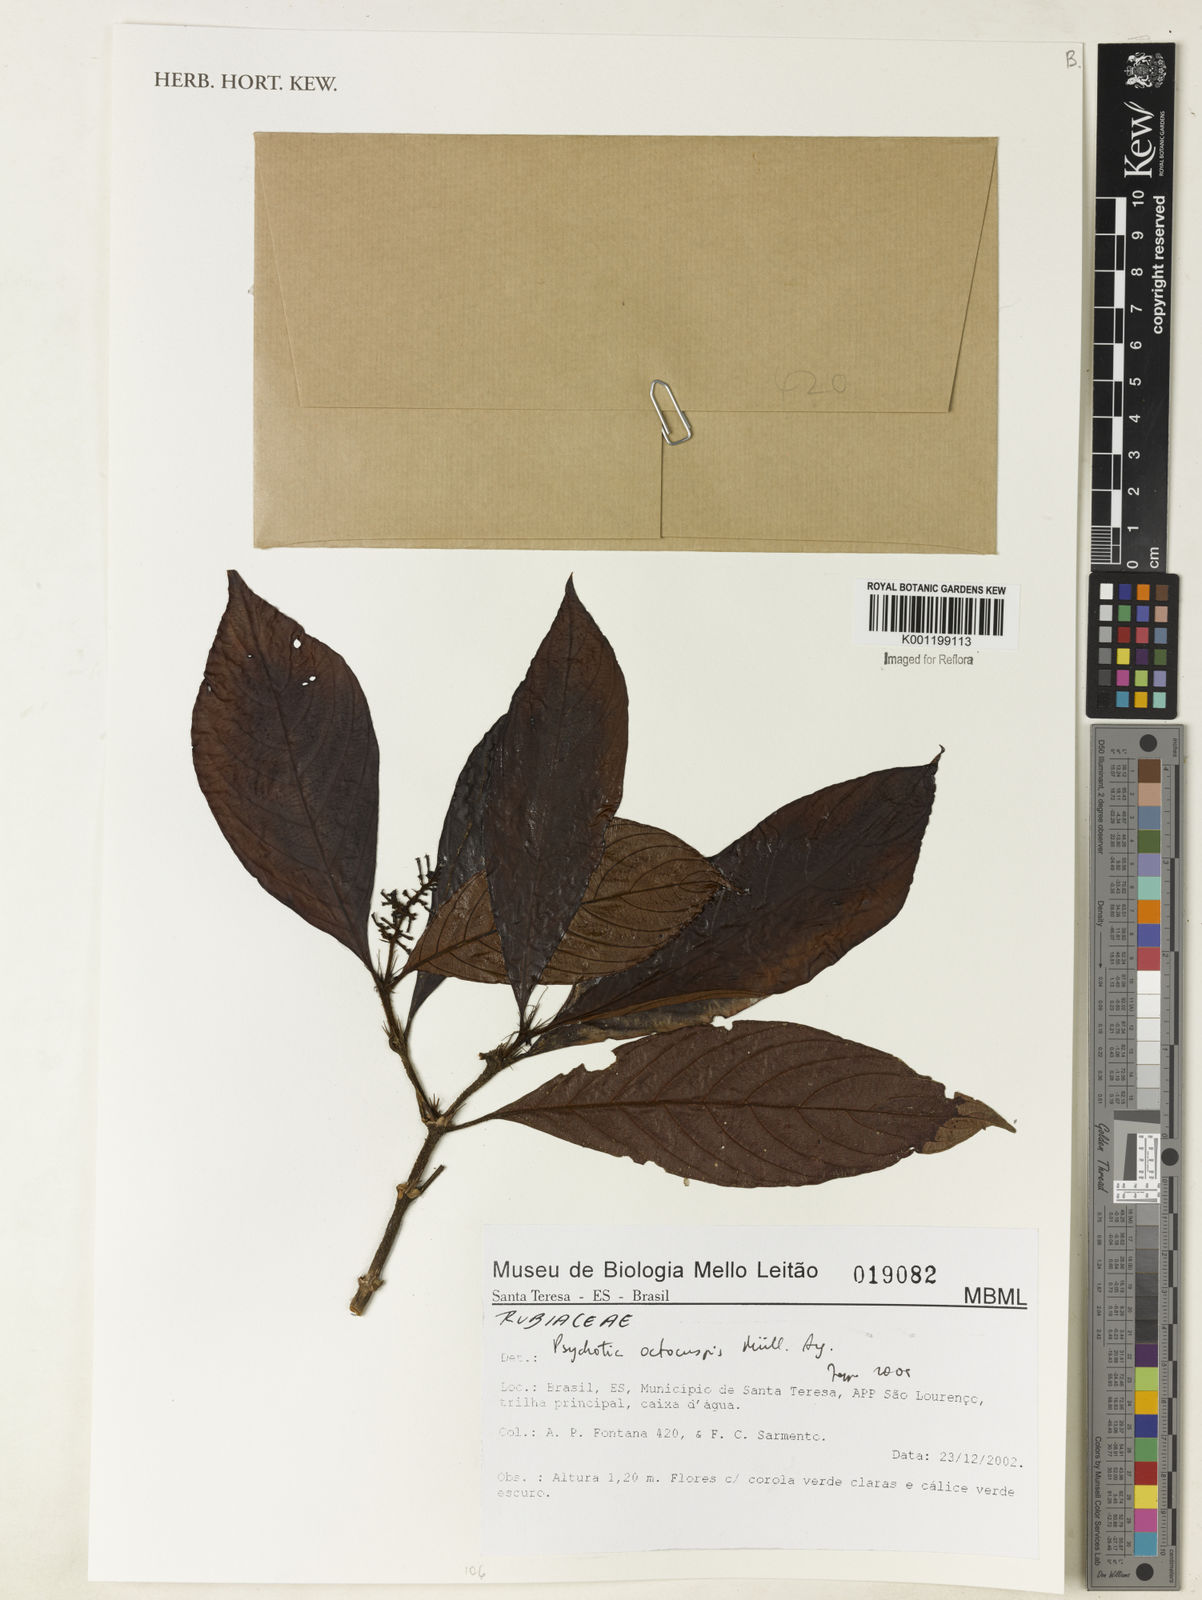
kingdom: Plantae
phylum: Tracheophyta
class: Magnoliopsida
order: Gentianales
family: Rubiaceae
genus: Psychotria
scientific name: Psychotria
